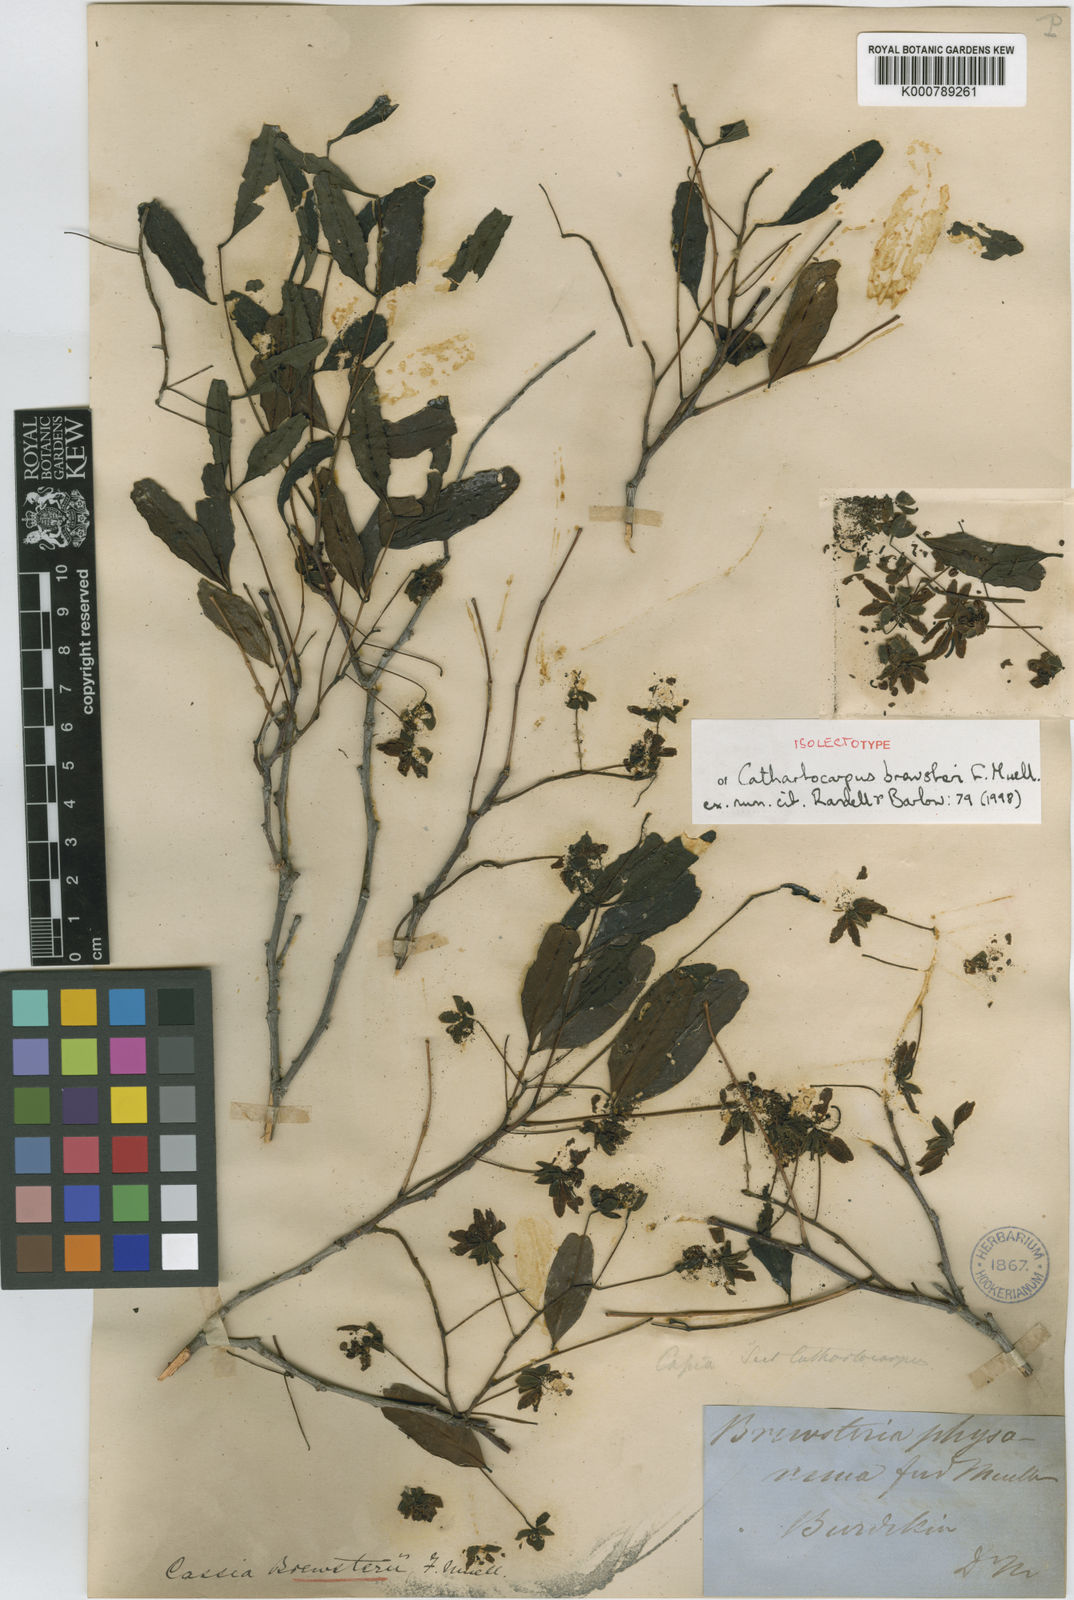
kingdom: Plantae
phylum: Tracheophyta
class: Magnoliopsida
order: Fabales
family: Fabaceae
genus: Cassia
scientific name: Cassia
